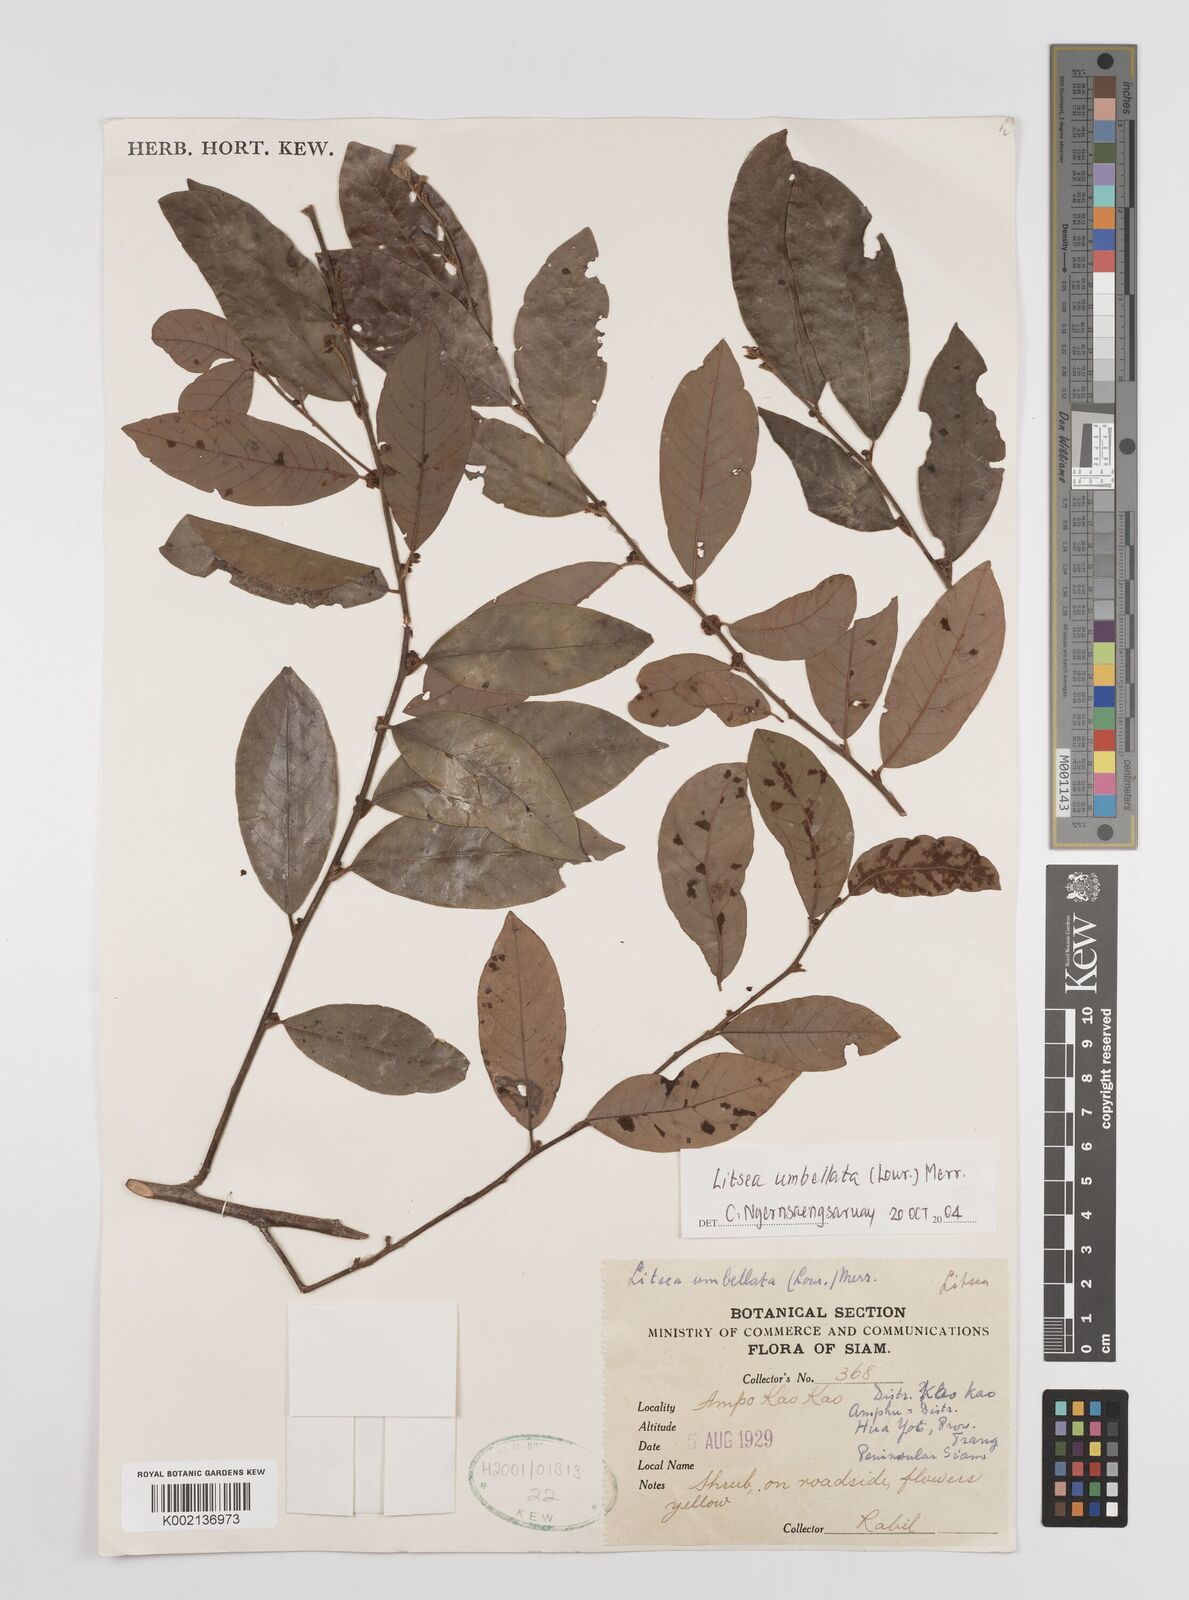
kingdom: Plantae
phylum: Tracheophyta
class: Magnoliopsida
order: Laurales
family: Lauraceae
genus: Litsea
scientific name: Litsea umbellata
